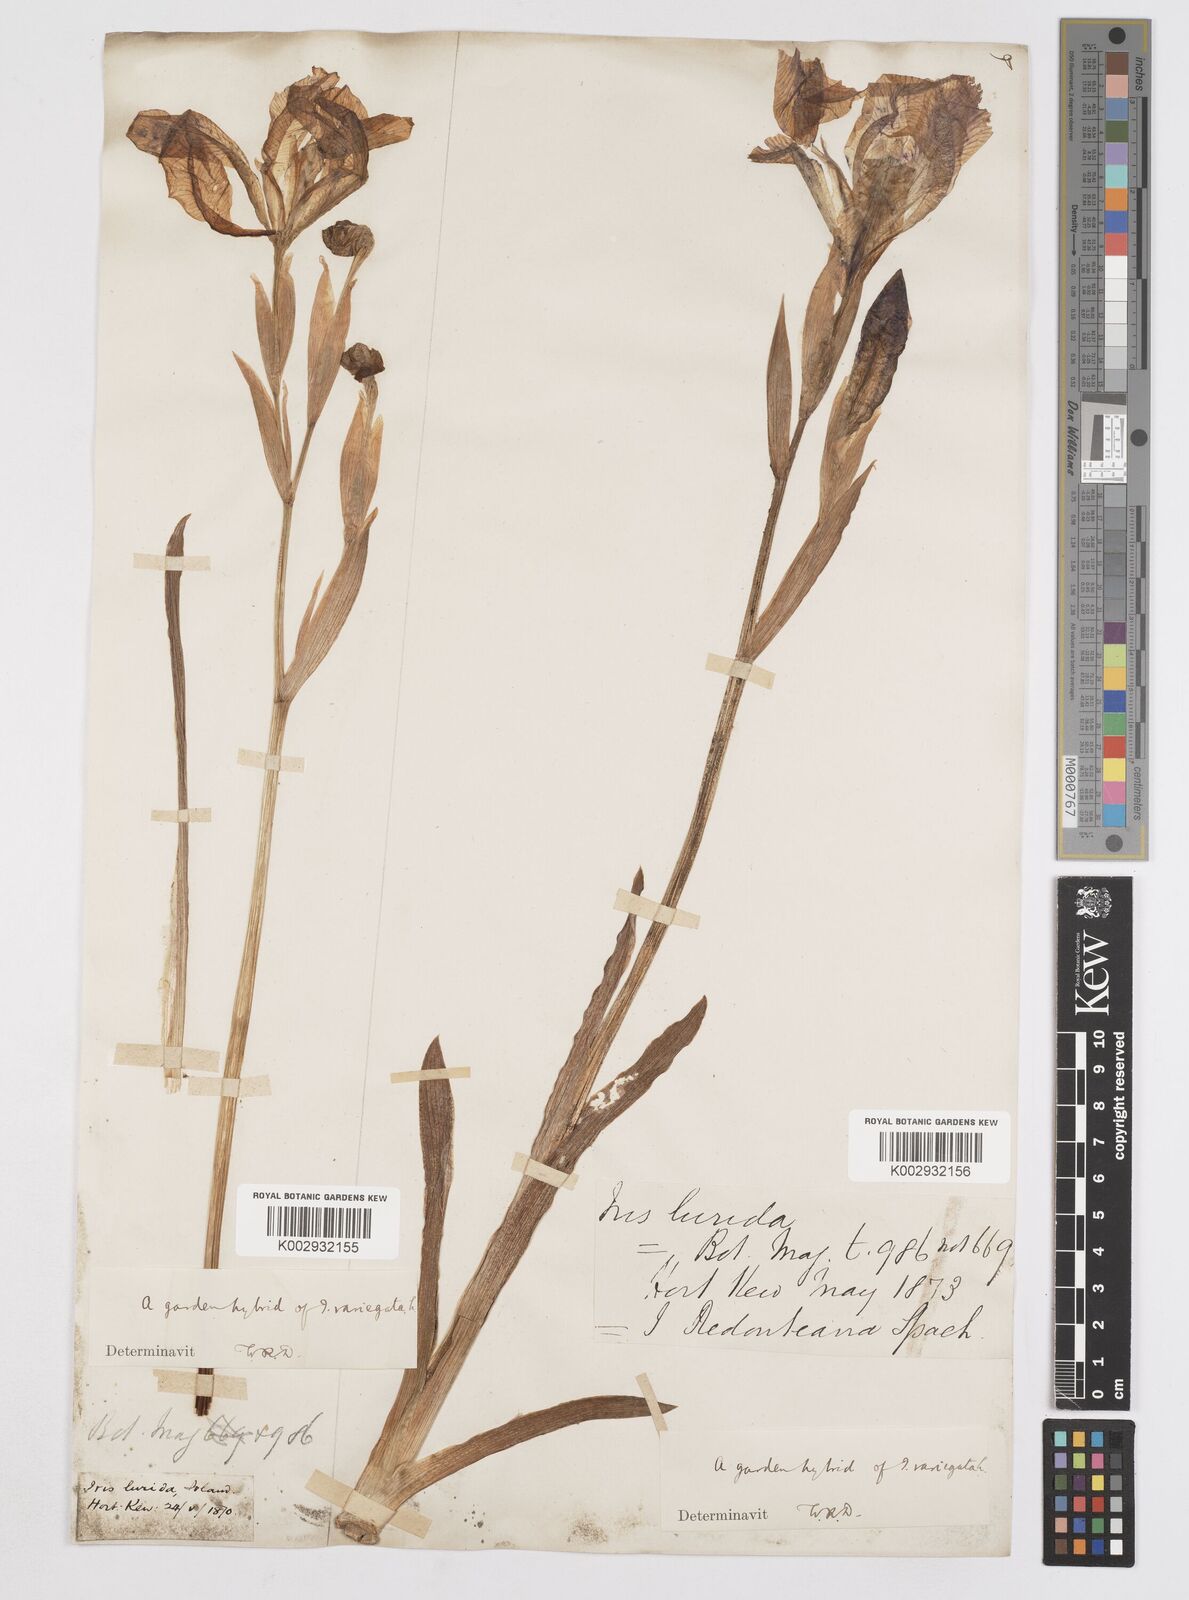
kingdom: Plantae
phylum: Tracheophyta
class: Liliopsida
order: Asparagales
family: Iridaceae
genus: Iris
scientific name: Iris sari
